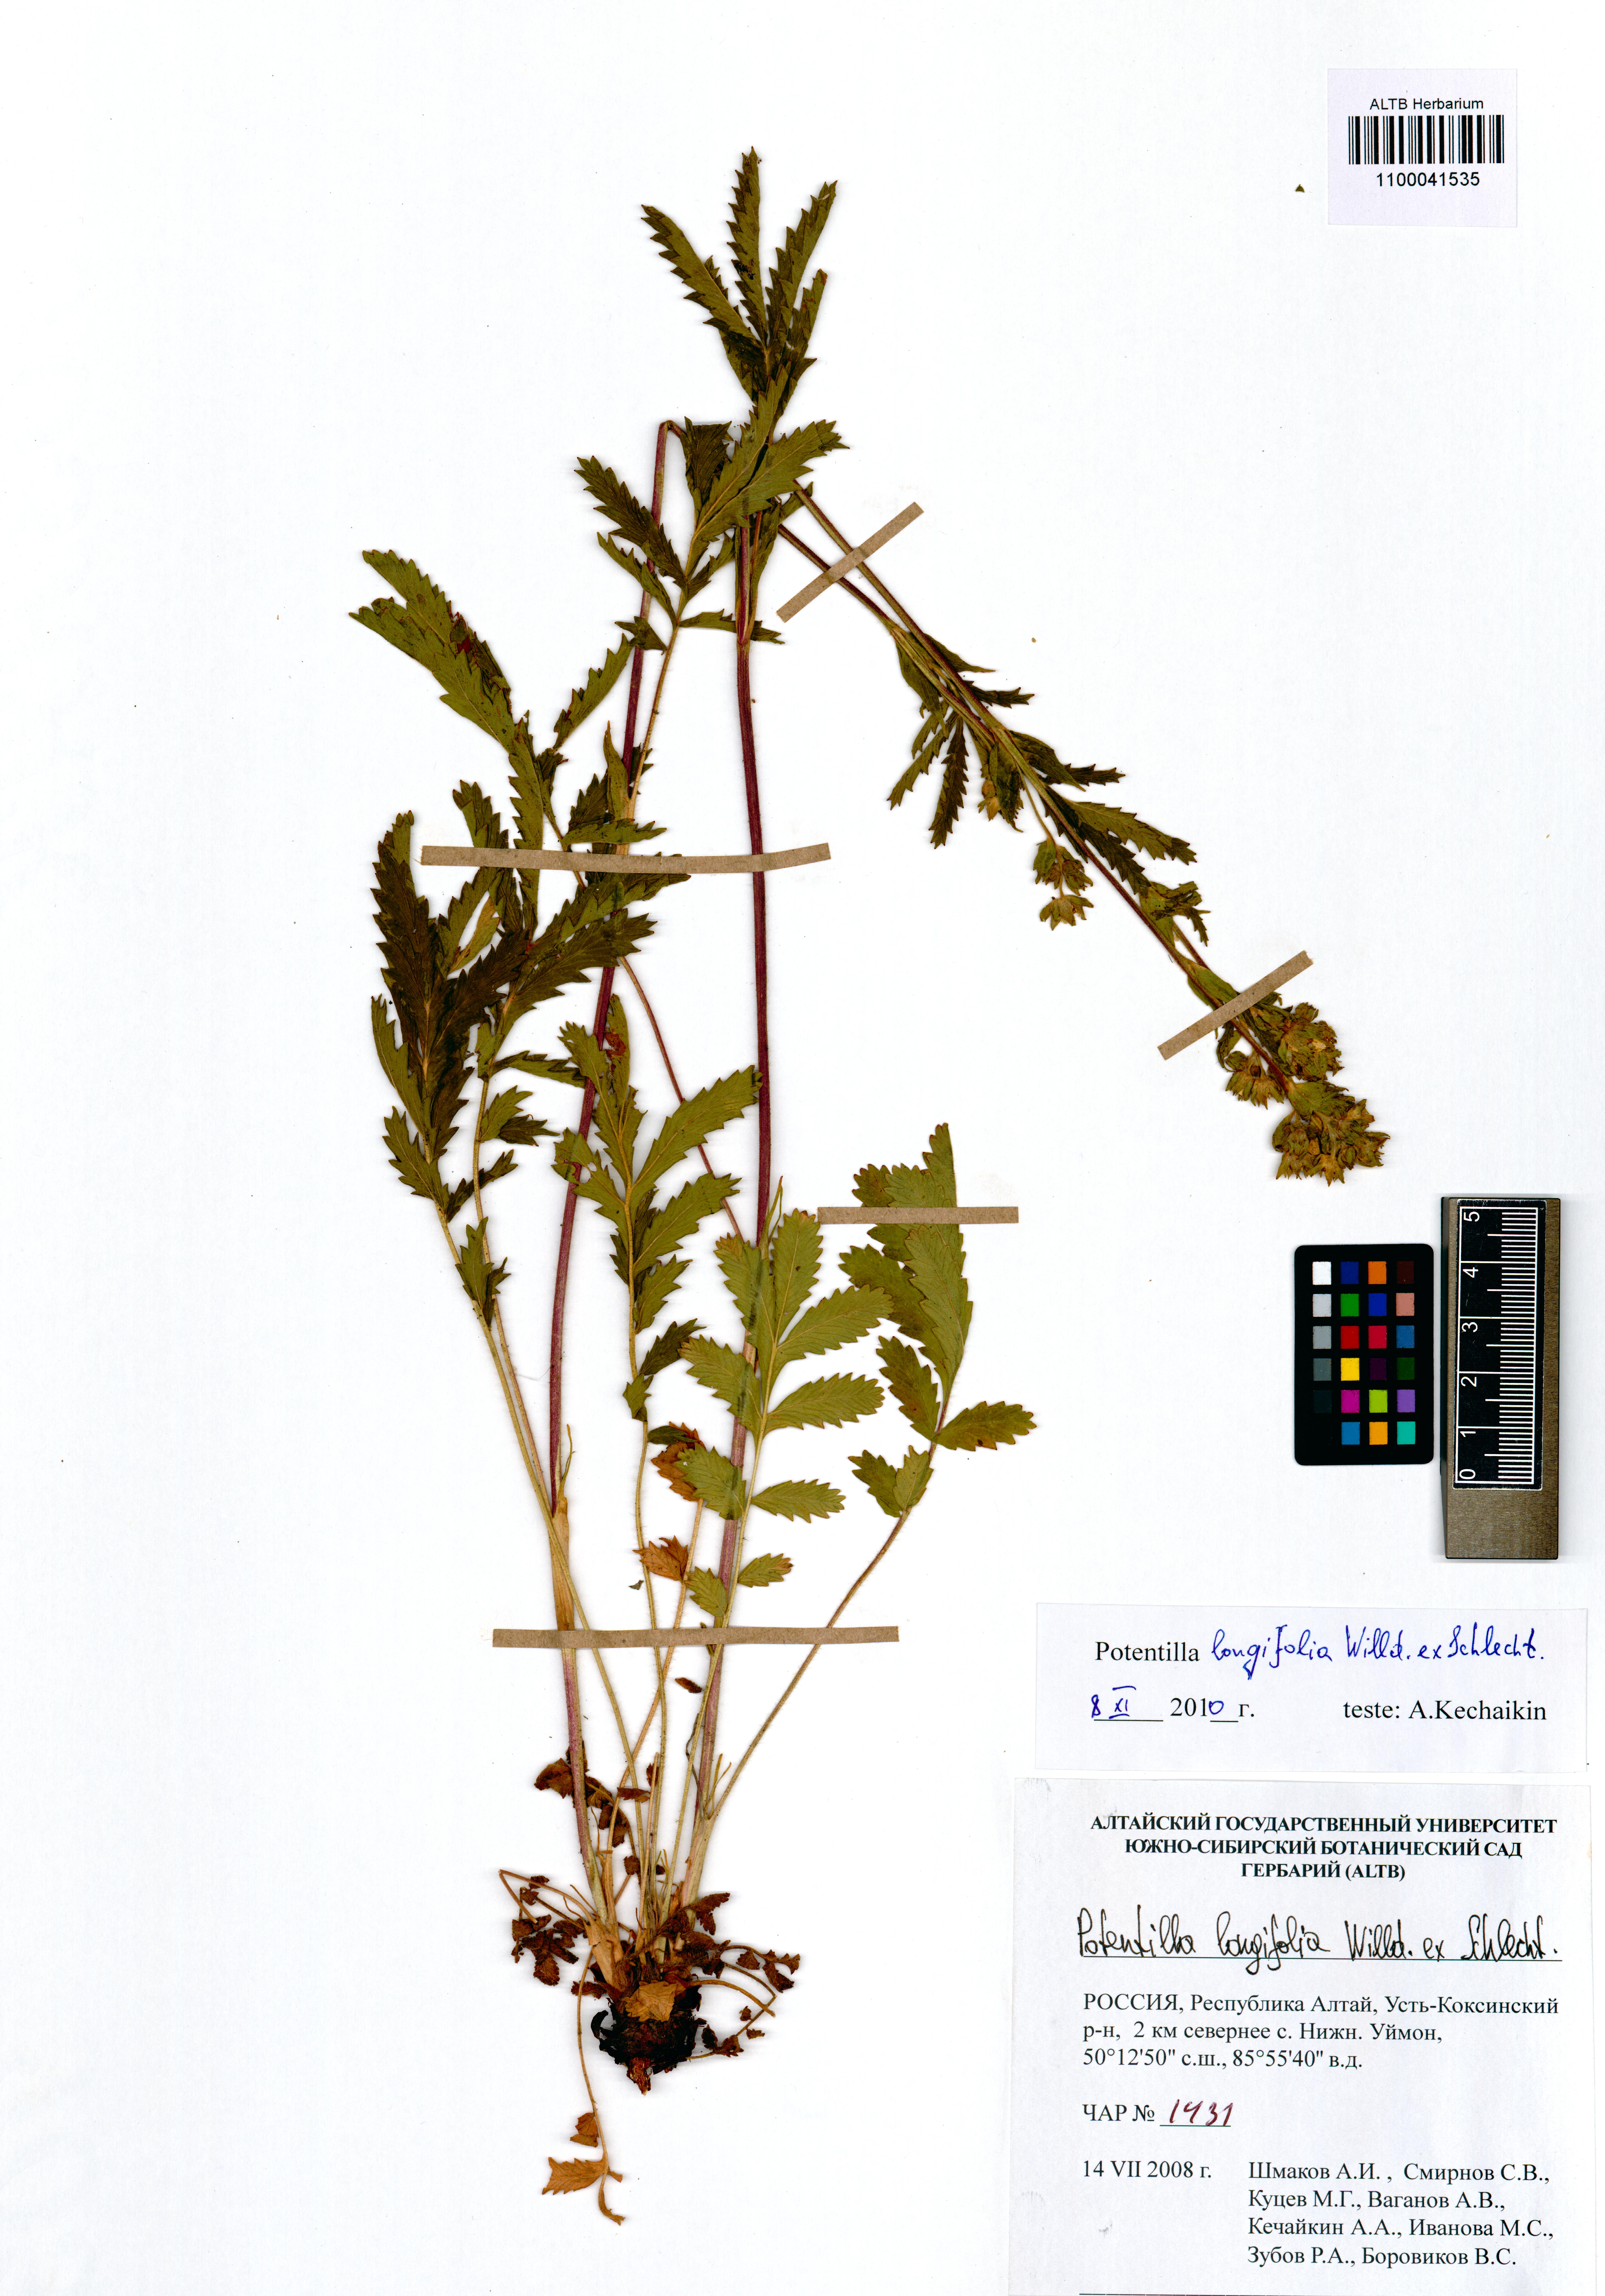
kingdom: Plantae
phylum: Tracheophyta
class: Magnoliopsida
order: Rosales
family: Rosaceae
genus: Potentilla
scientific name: Potentilla longifolia
